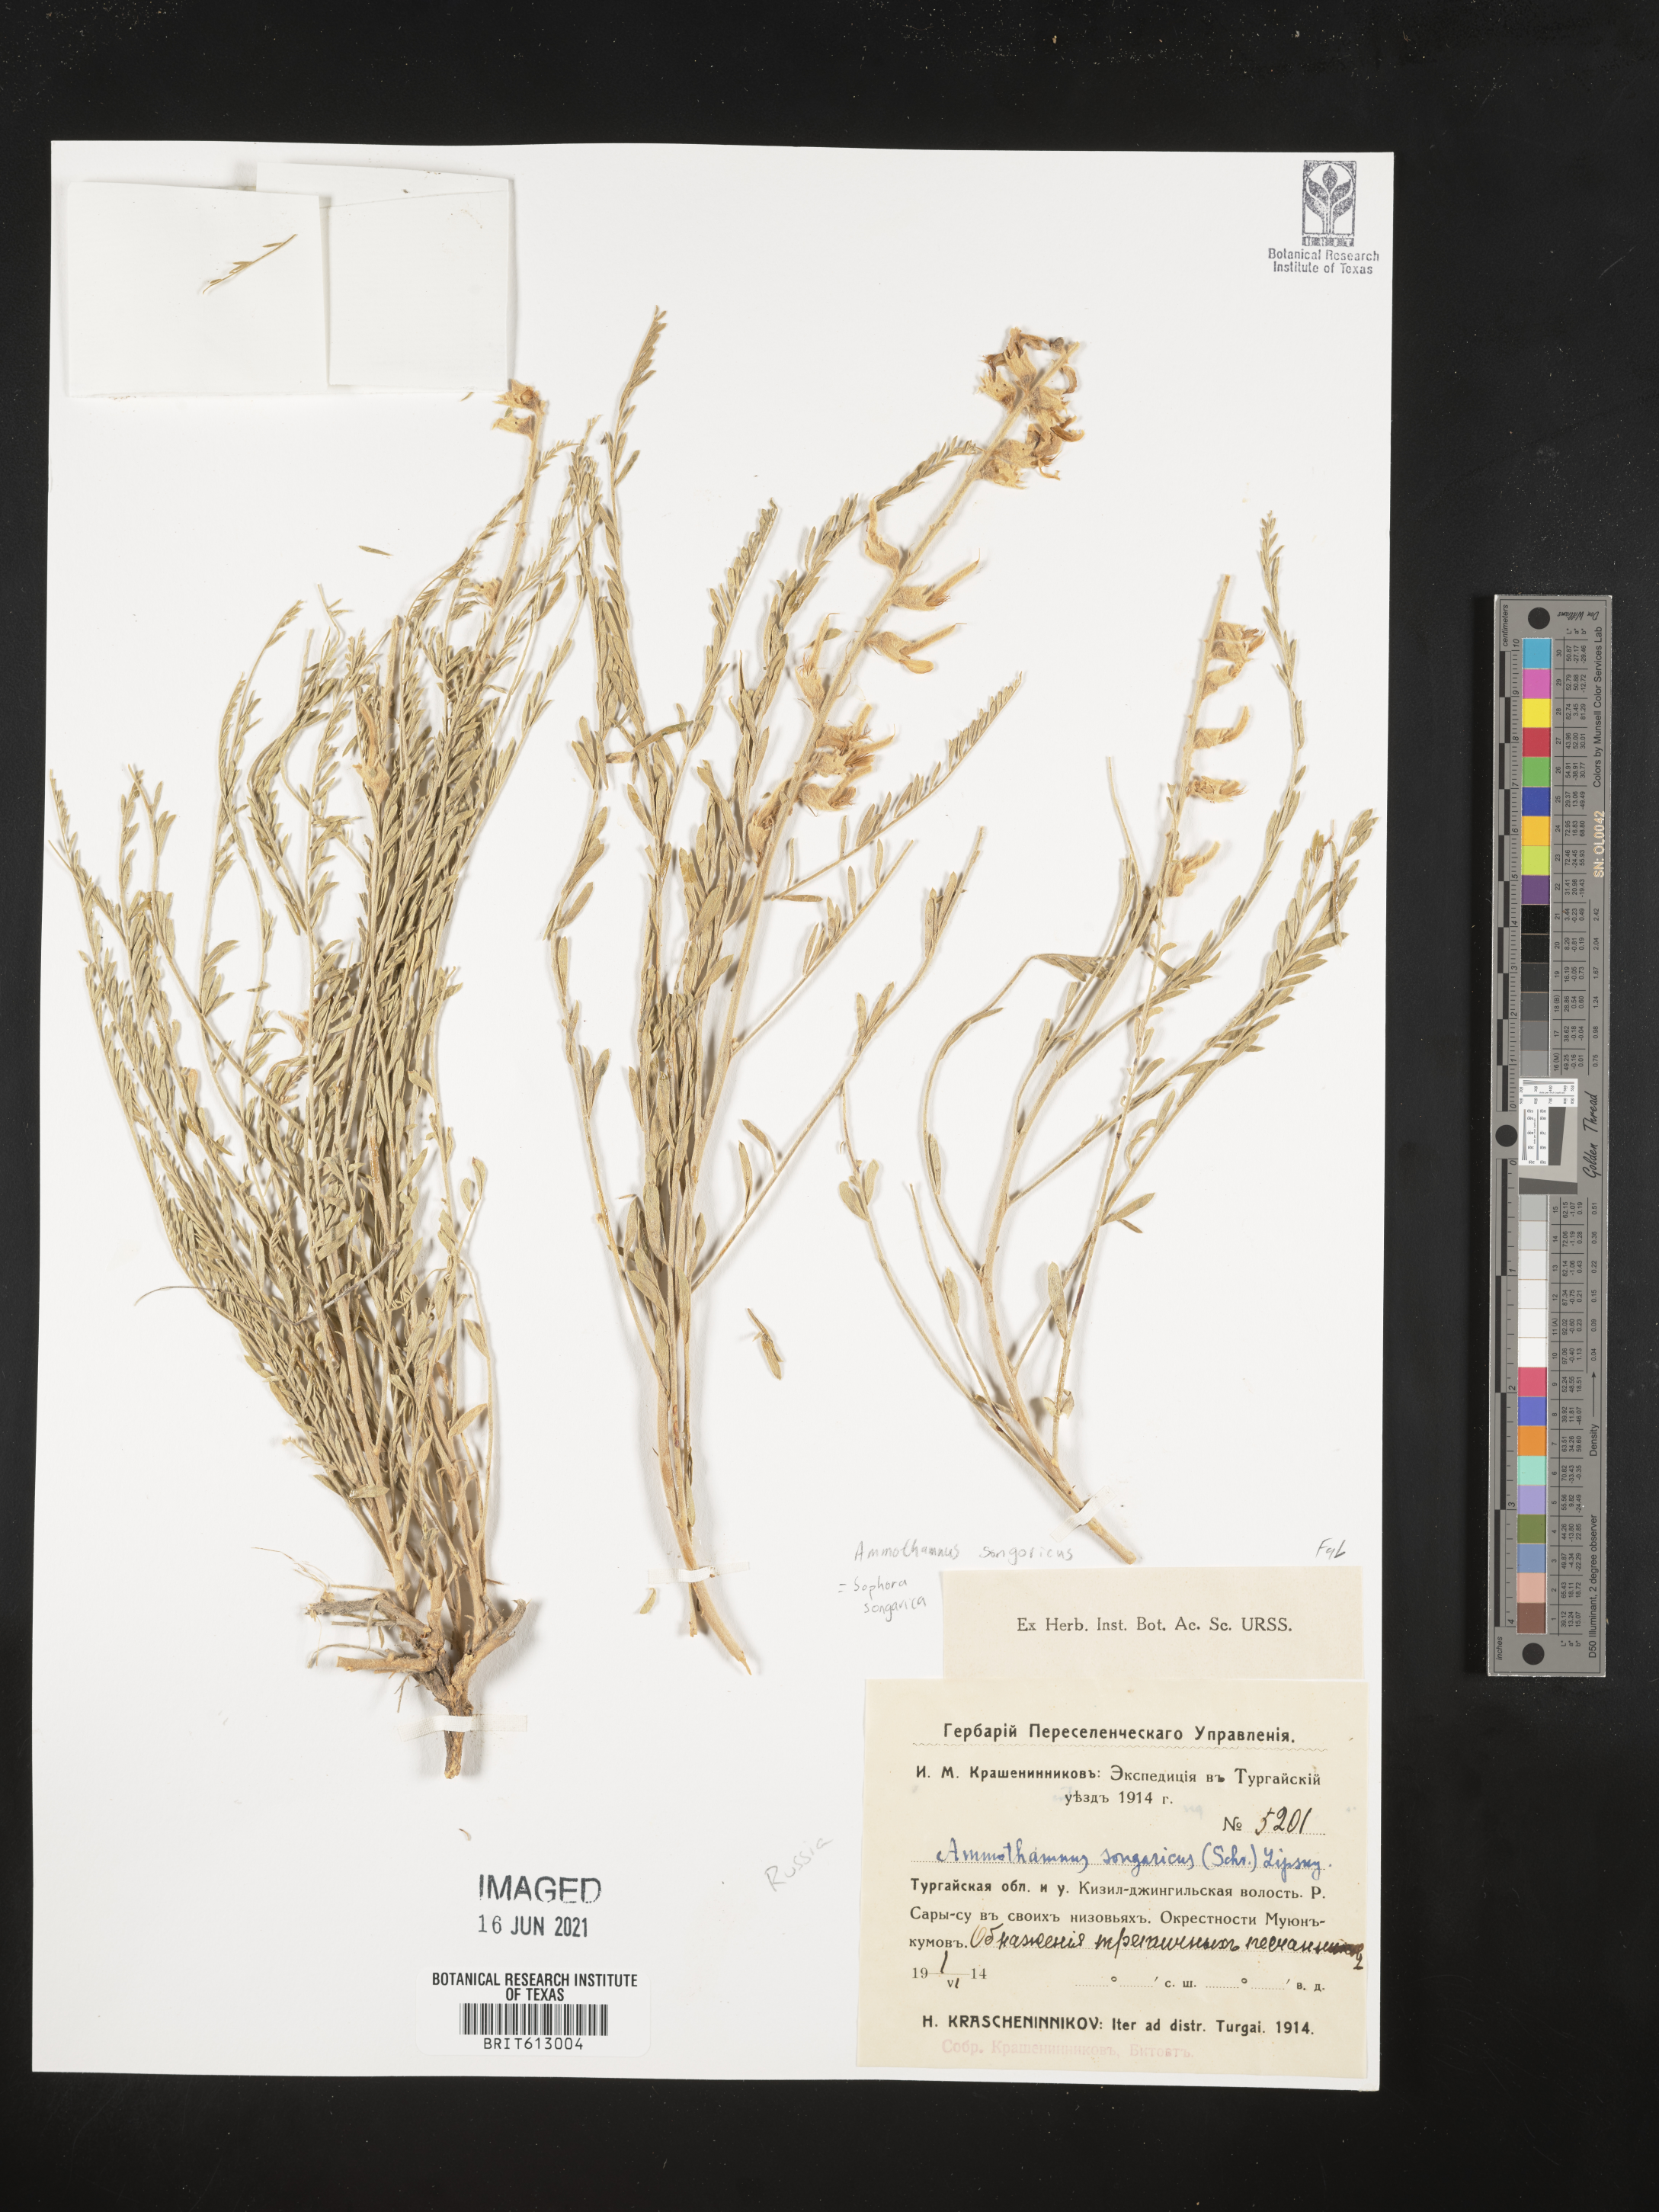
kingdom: Plantae
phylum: Tracheophyta
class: Magnoliopsida
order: Fabales
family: Fabaceae
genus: Sophora
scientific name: Sophora songorica
